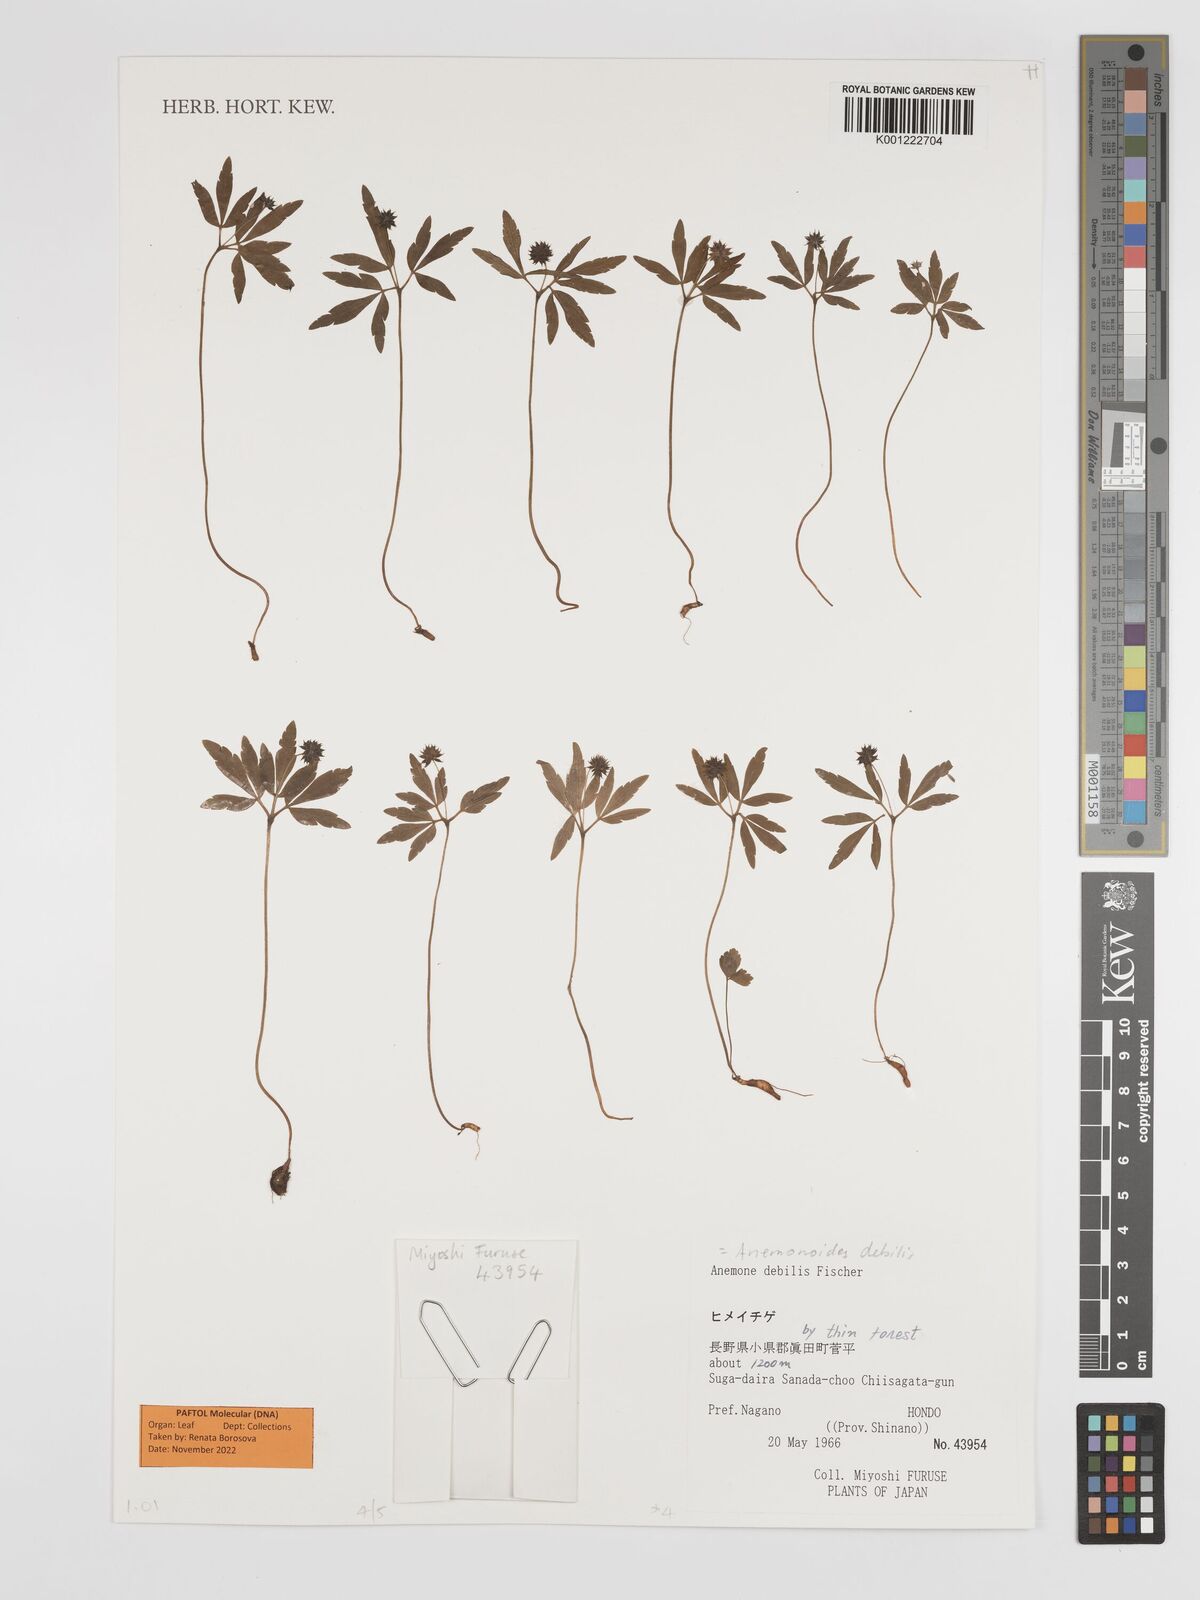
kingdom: Plantae
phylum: Tracheophyta
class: Magnoliopsida
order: Ranunculales
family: Ranunculaceae
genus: Anemone
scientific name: Anemone debilis
